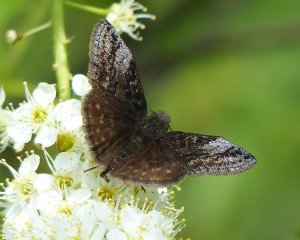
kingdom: Animalia
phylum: Arthropoda
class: Insecta
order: Lepidoptera
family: Hesperiidae
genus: Erynnis
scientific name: Erynnis icelus
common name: Dreamy Duskywing
